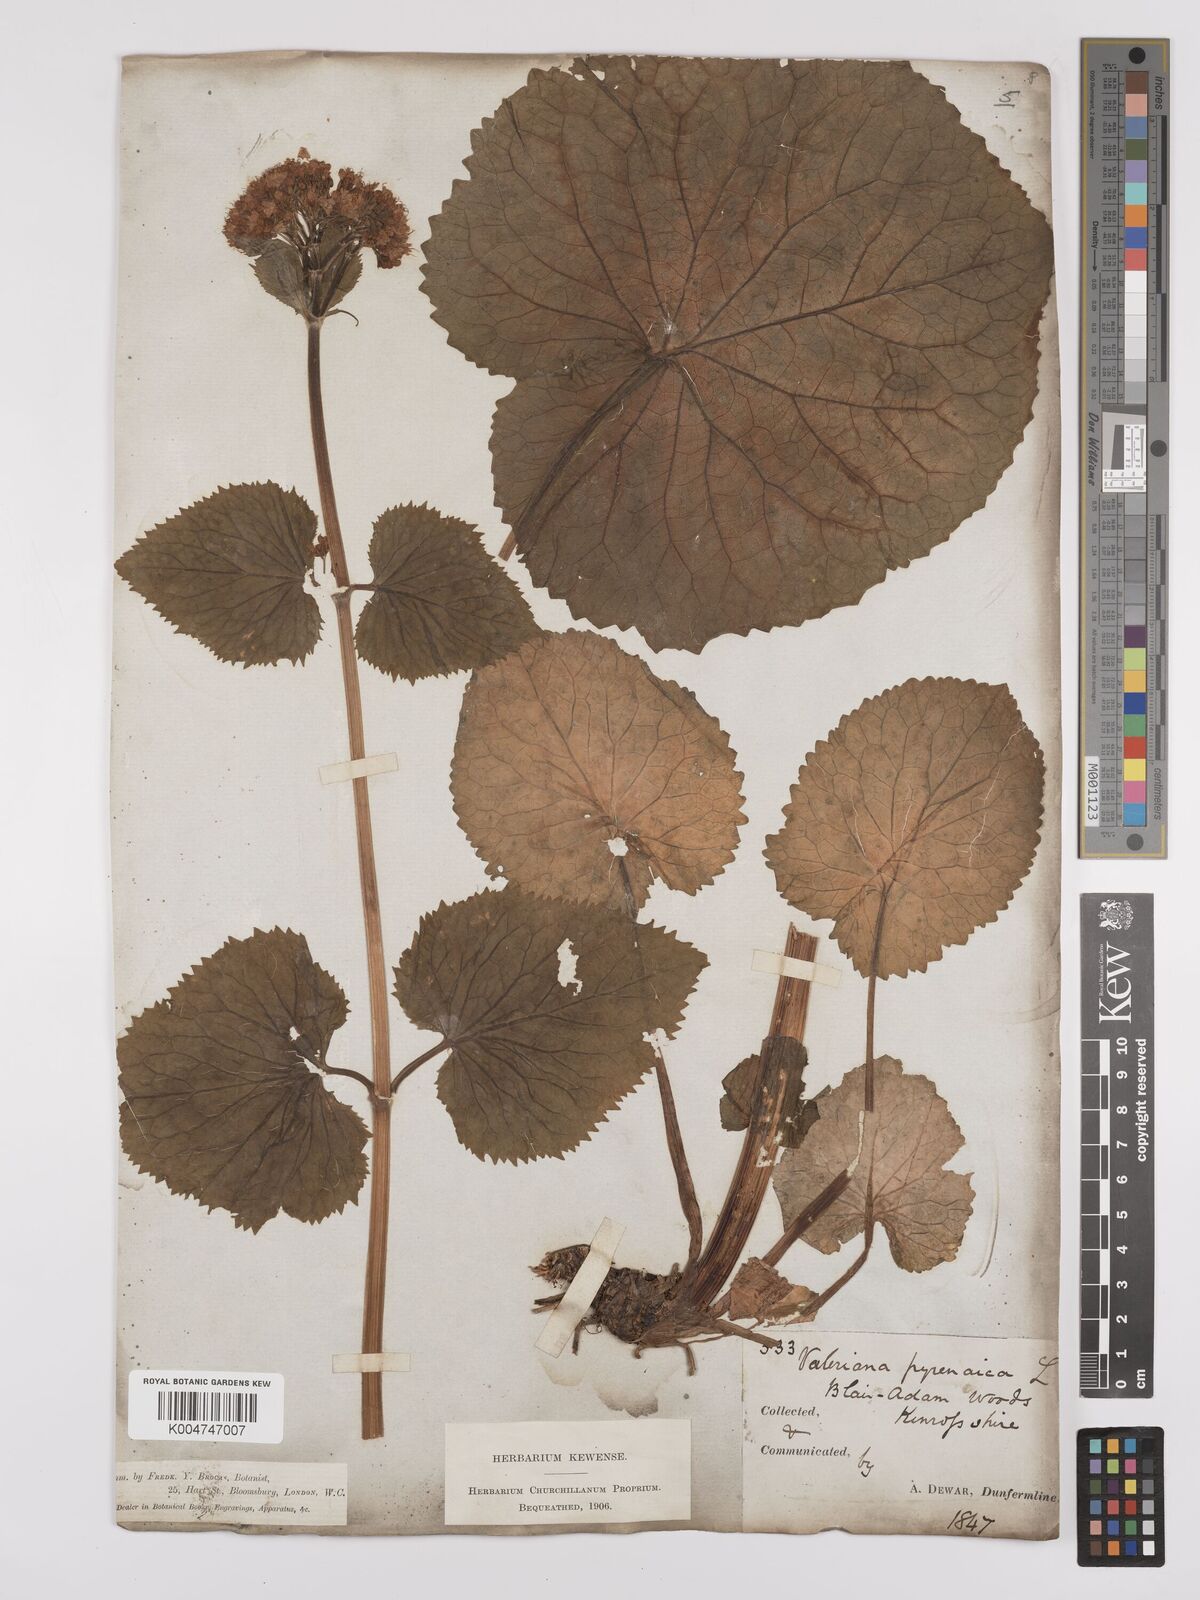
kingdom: Plantae
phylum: Tracheophyta
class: Magnoliopsida
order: Dipsacales
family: Caprifoliaceae
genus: Valeriana
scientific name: Valeriana pyrenaica
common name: Pyrenean valerian
